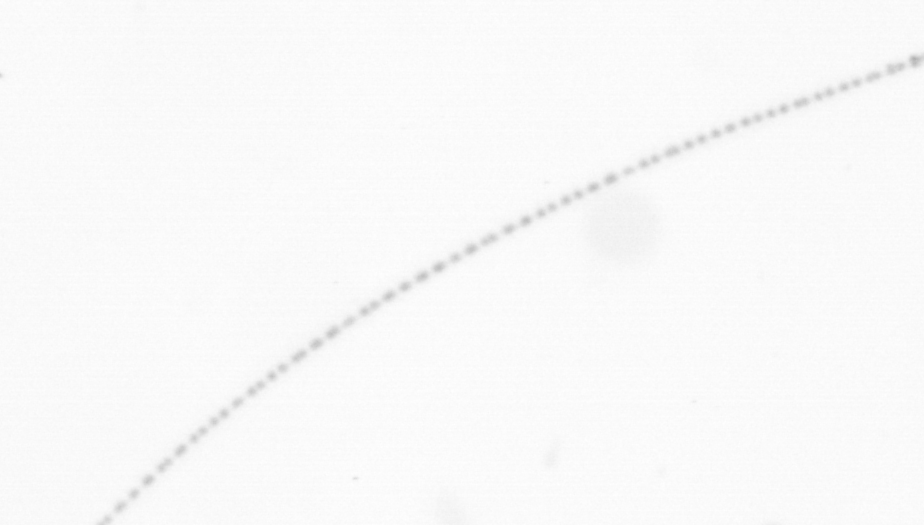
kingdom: Chromista
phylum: Ochrophyta
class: Bacillariophyceae
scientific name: Bacillariophyceae
